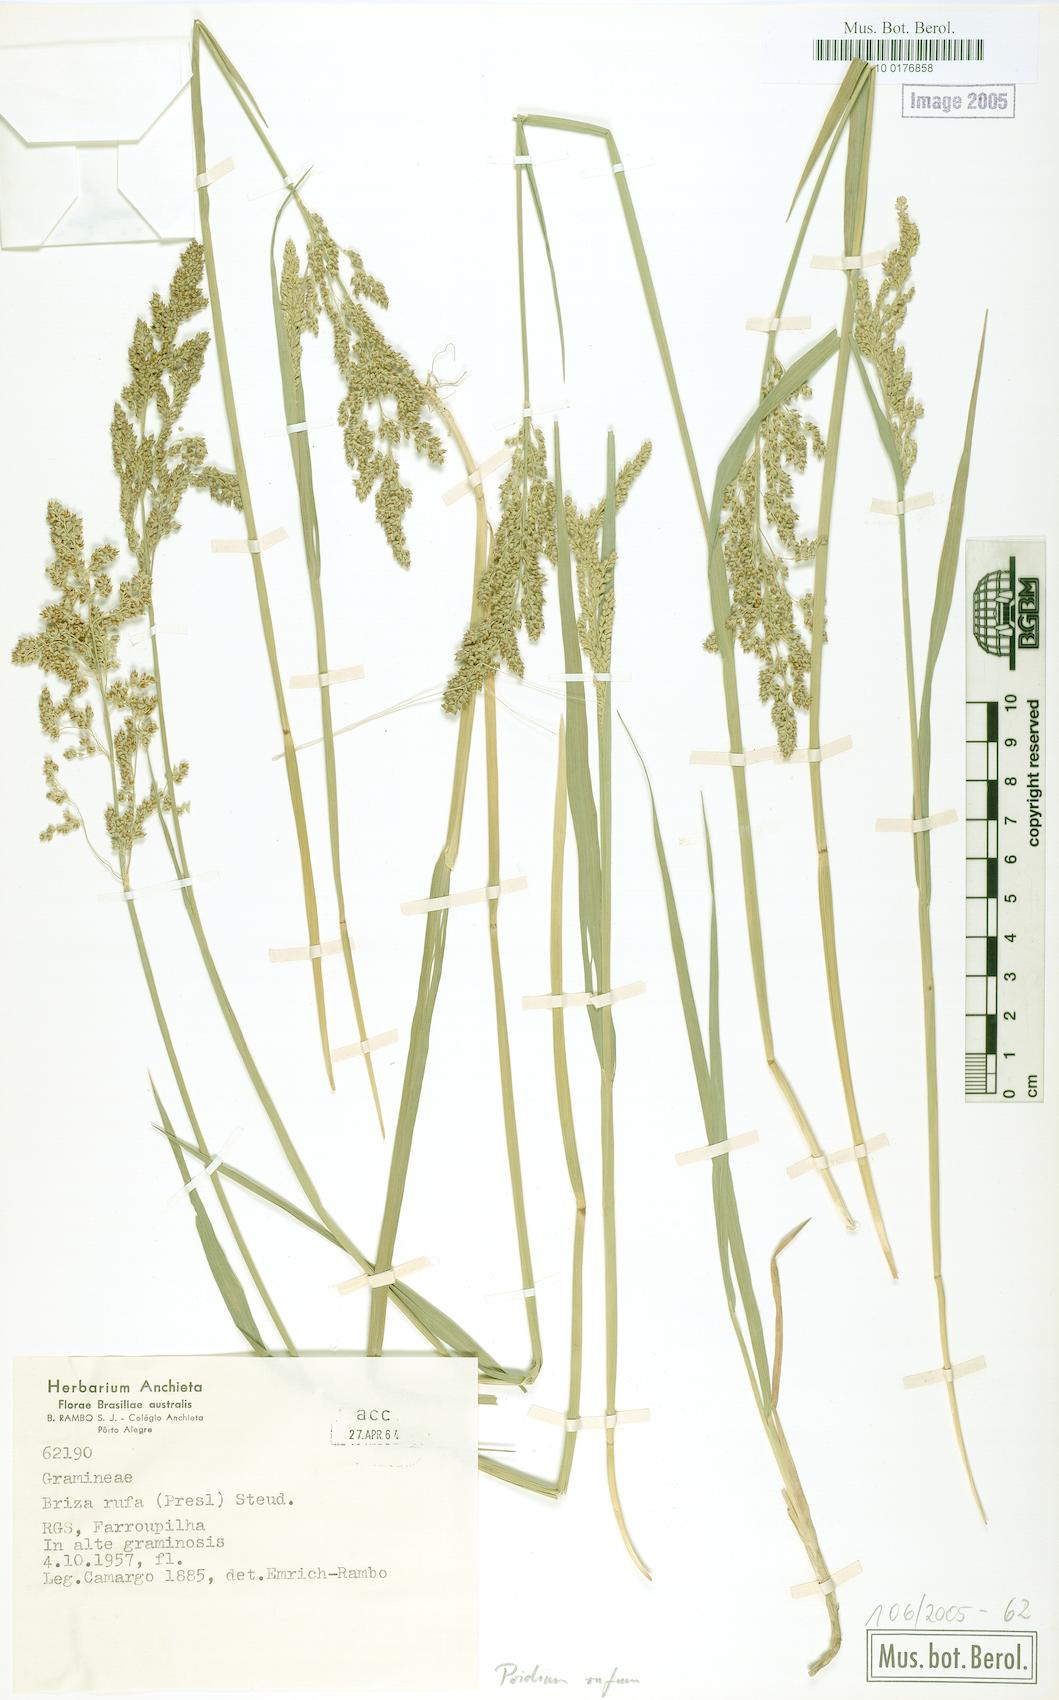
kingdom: Plantae
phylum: Tracheophyta
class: Liliopsida
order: Poales
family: Poaceae
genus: Lombardochloa
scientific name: Lombardochloa rufa
